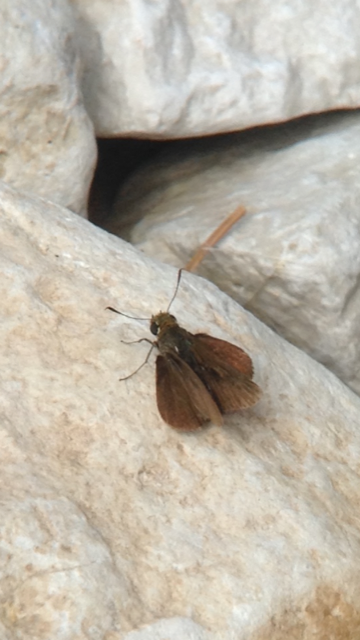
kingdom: Animalia
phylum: Arthropoda
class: Insecta
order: Lepidoptera
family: Hesperiidae
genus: Euphyes
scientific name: Euphyes vestris
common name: Dun Skipper
